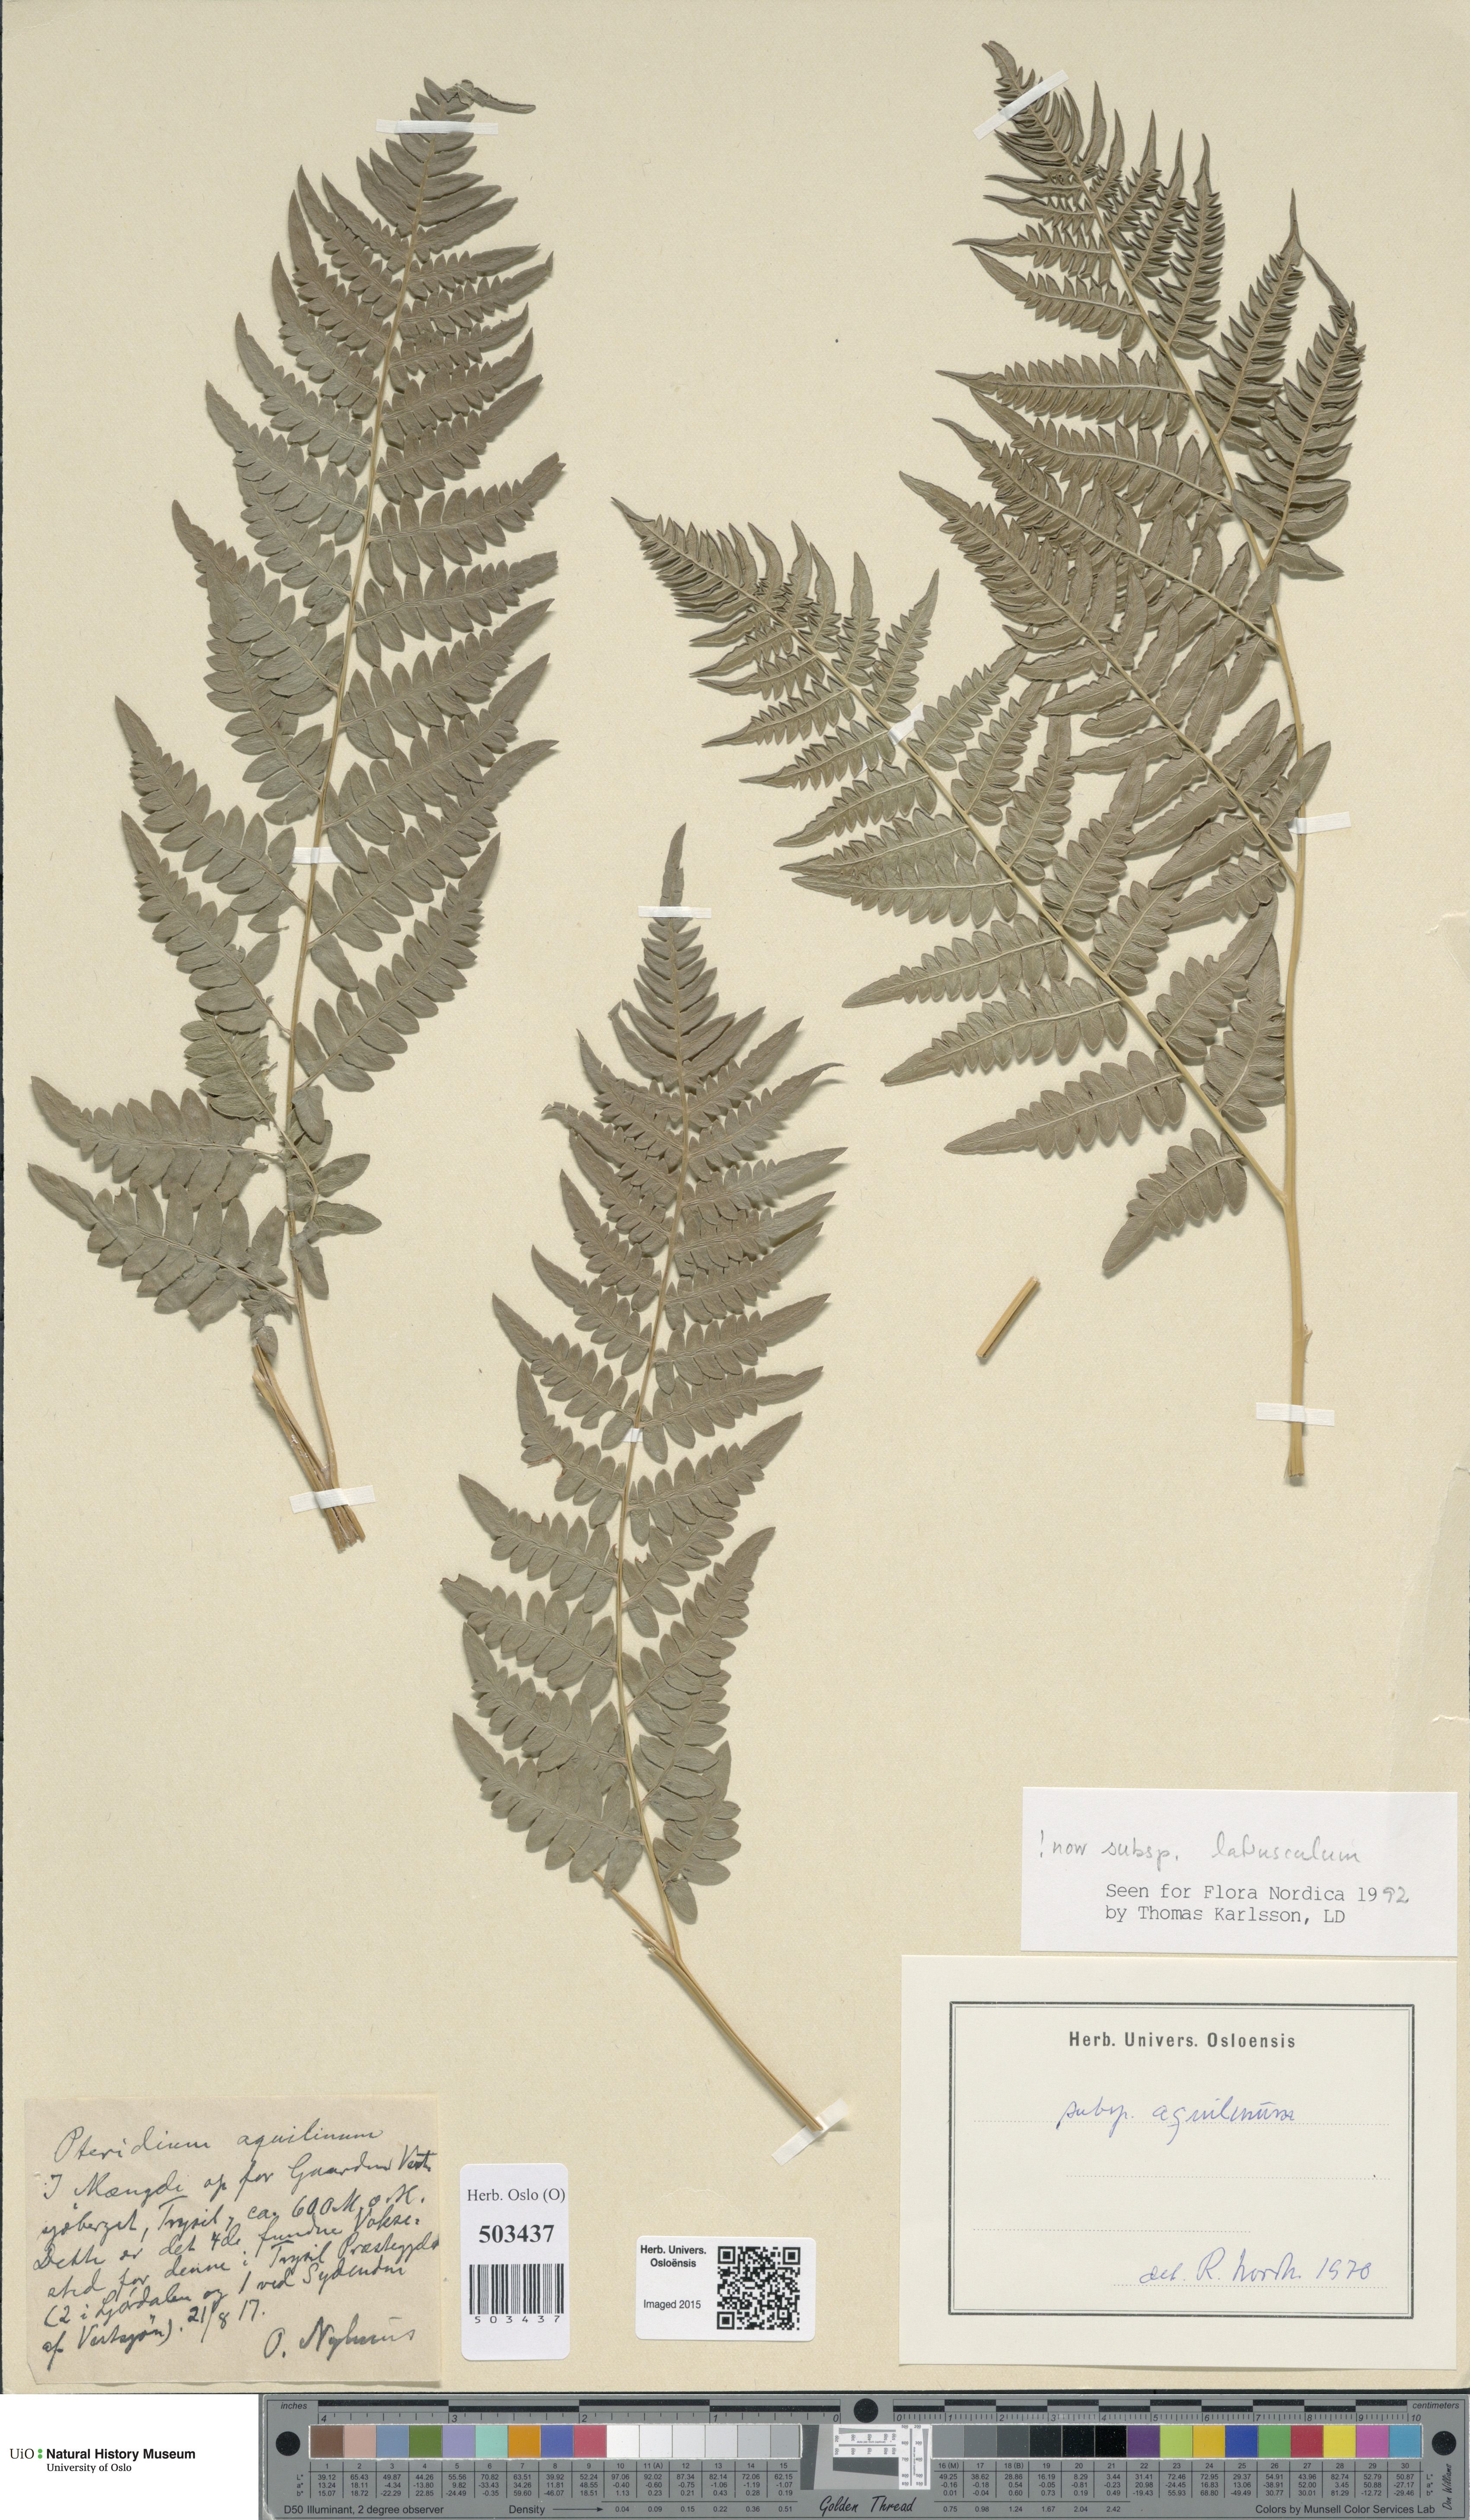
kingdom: Plantae
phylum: Tracheophyta
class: Polypodiopsida
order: Polypodiales
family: Dennstaedtiaceae
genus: Pteridium
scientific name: Pteridium aquilinum
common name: Bracken
